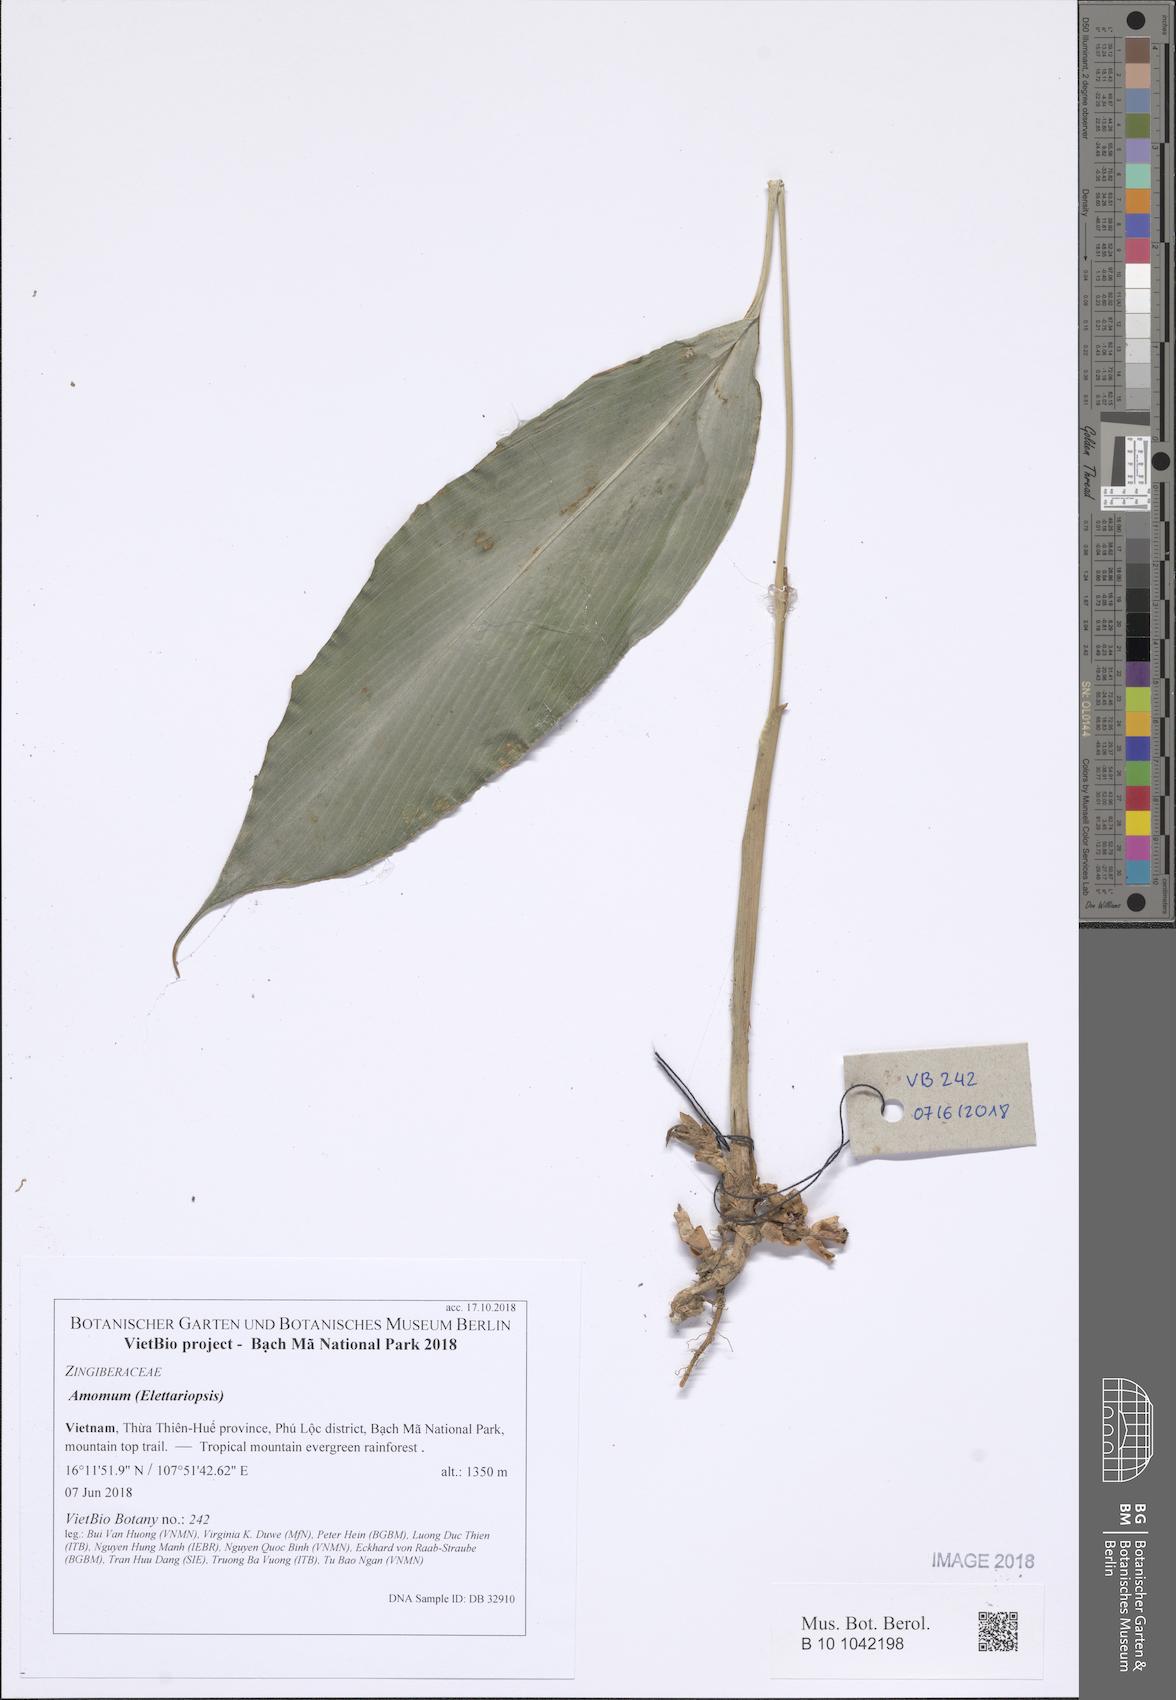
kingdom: Plantae
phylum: Tracheophyta
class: Liliopsida
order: Zingiberales
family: Zingiberaceae
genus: Amomum
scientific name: Amomum
